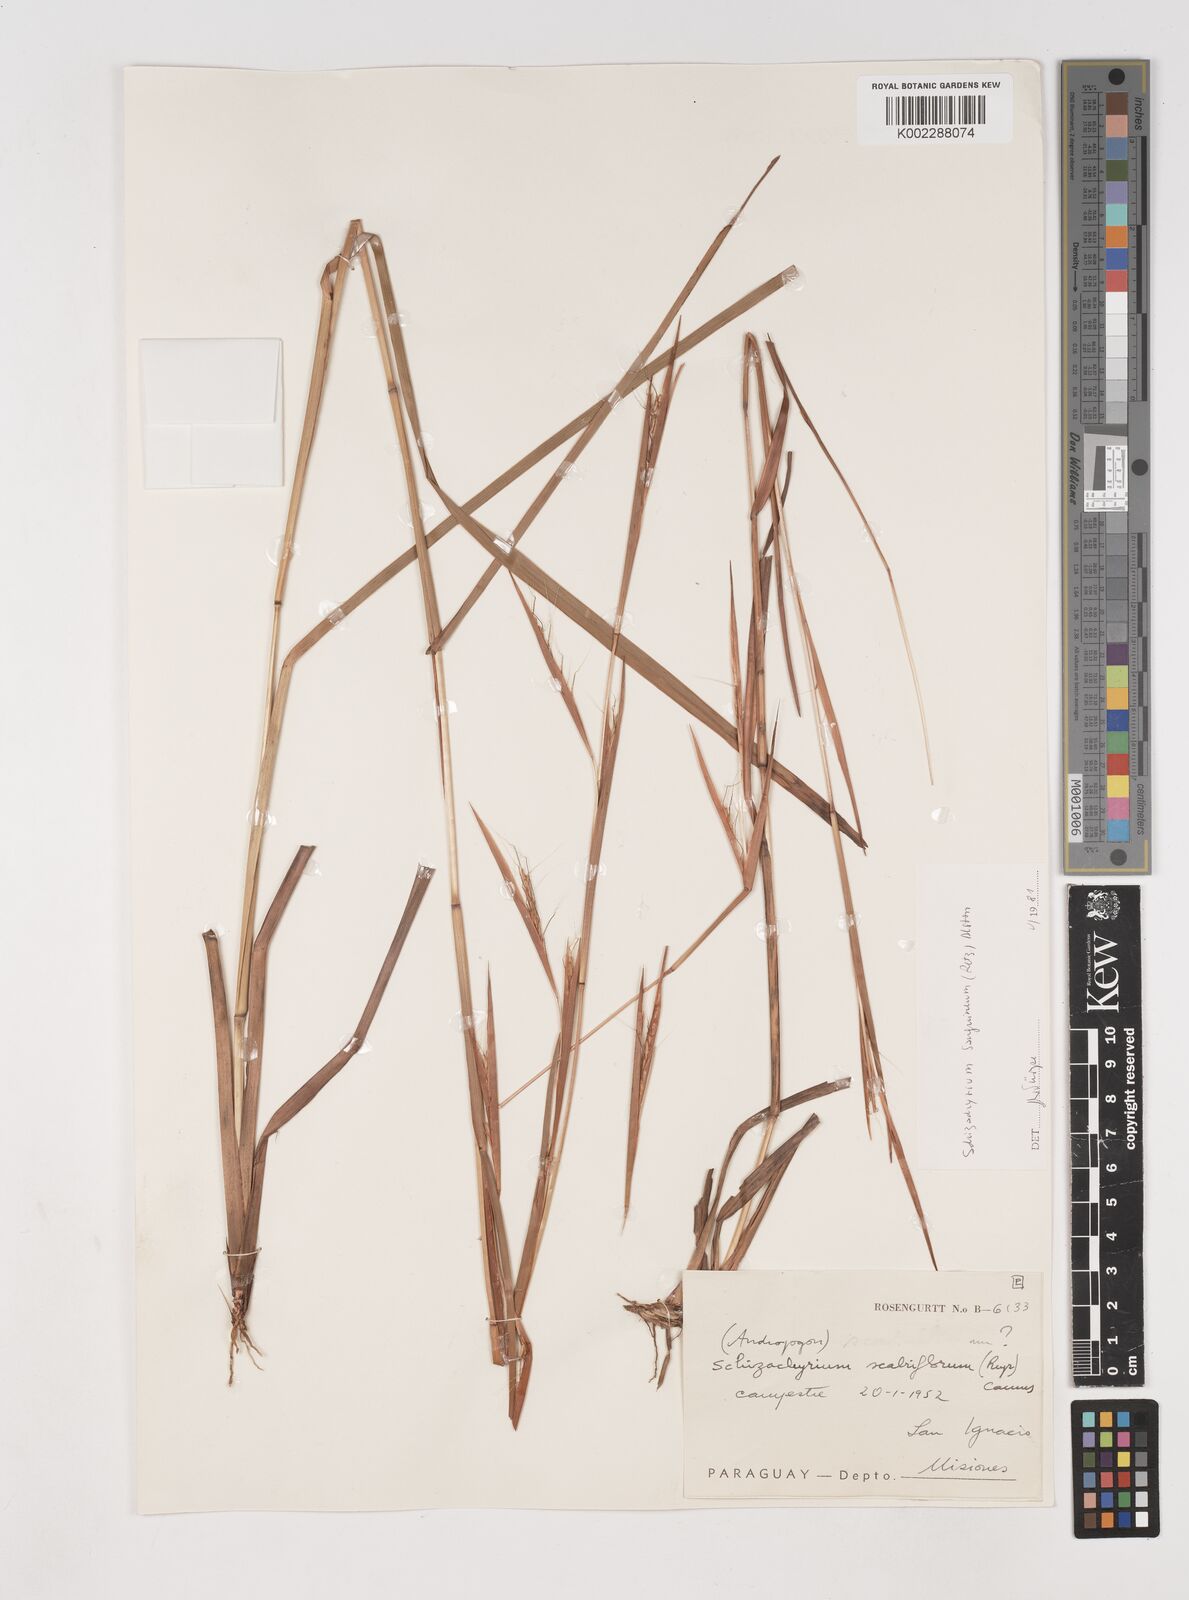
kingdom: Plantae
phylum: Tracheophyta
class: Liliopsida
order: Poales
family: Poaceae
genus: Schizachyrium
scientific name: Schizachyrium scabriflorum
